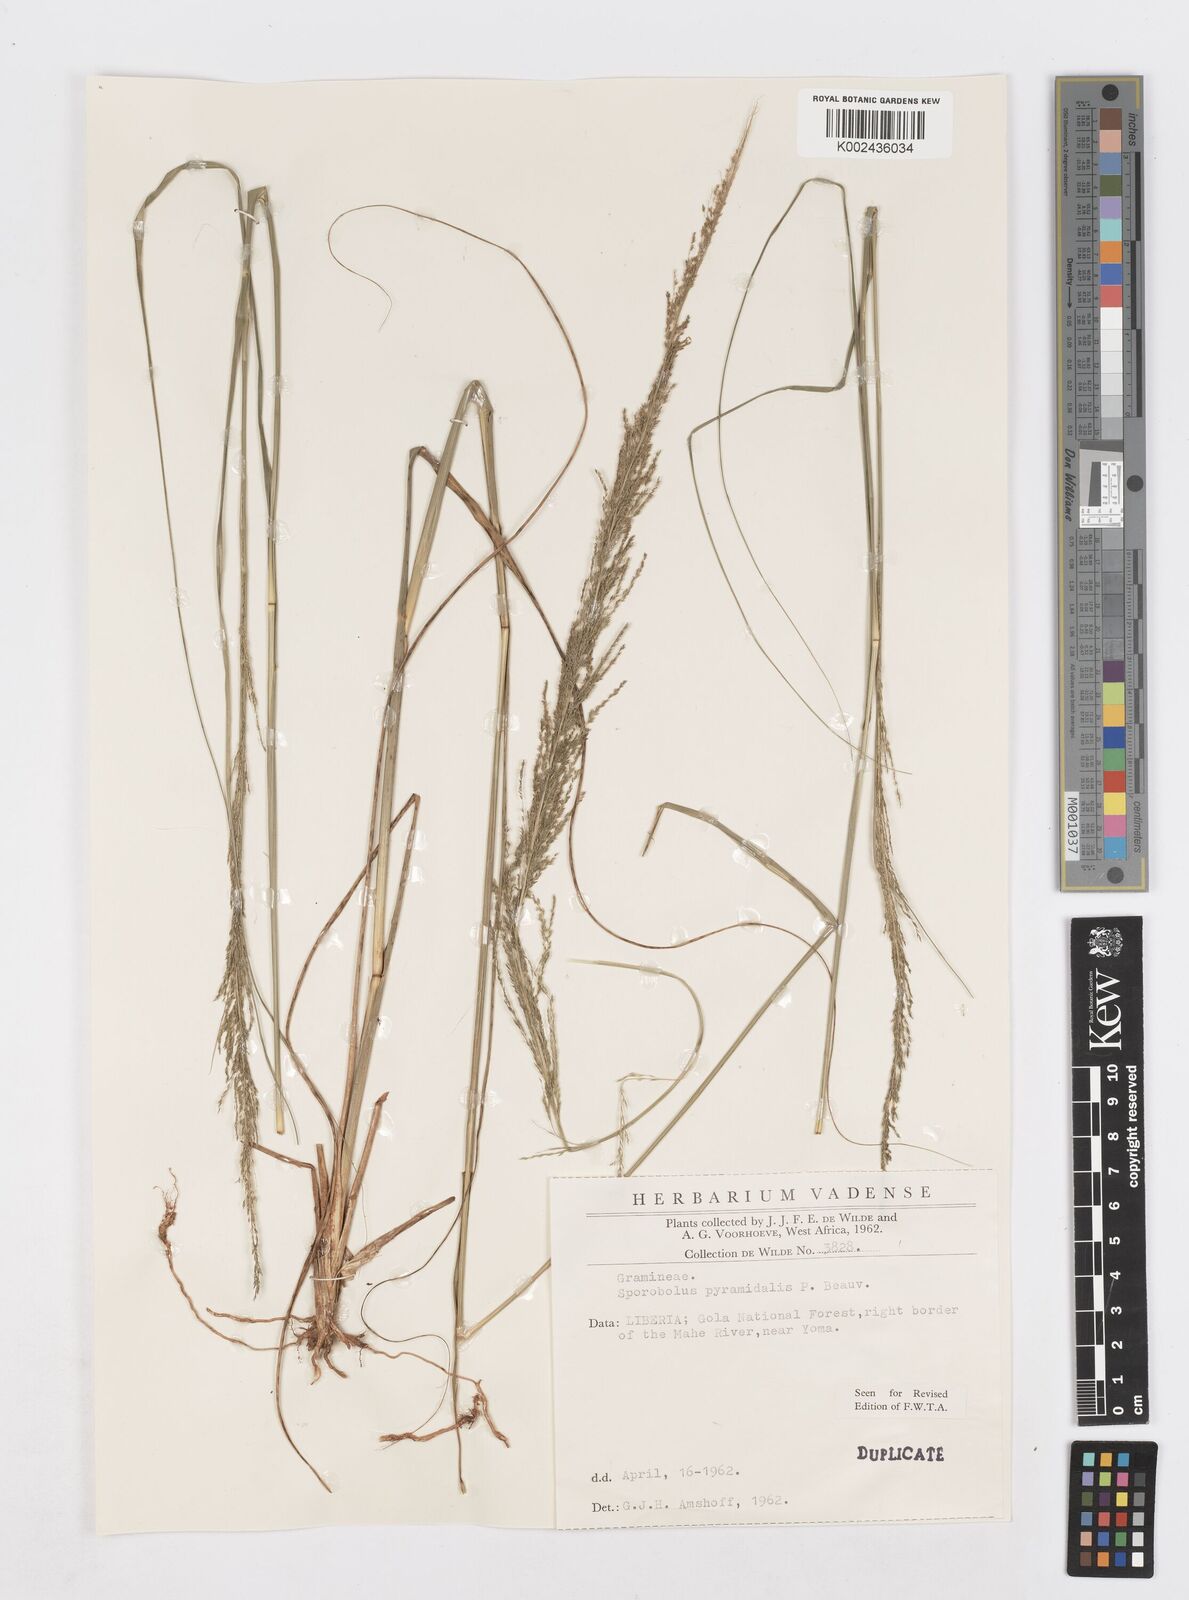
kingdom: Plantae
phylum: Tracheophyta
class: Liliopsida
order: Poales
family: Poaceae
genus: Sporobolus
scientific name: Sporobolus pyramidalis
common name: West indian dropseed
